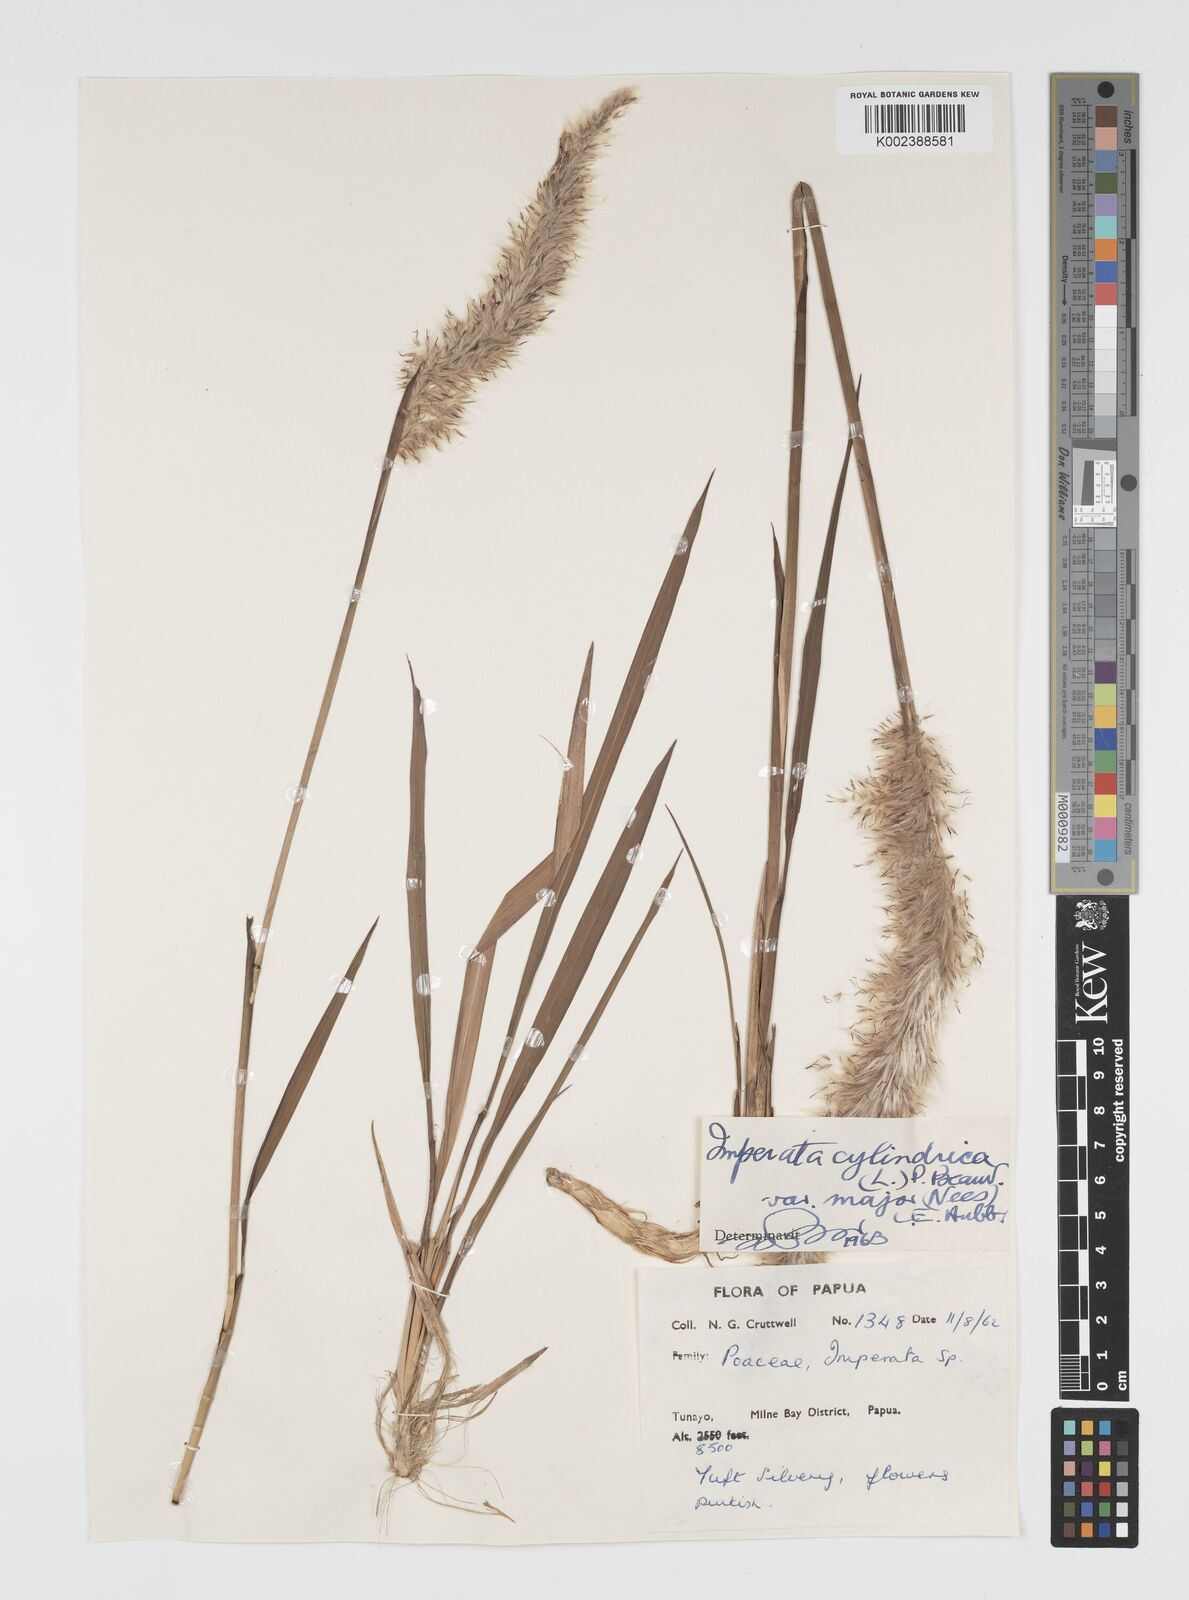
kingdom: Plantae
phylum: Tracheophyta
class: Liliopsida
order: Poales
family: Poaceae
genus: Imperata
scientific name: Imperata cylindrica
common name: Cogongrass
